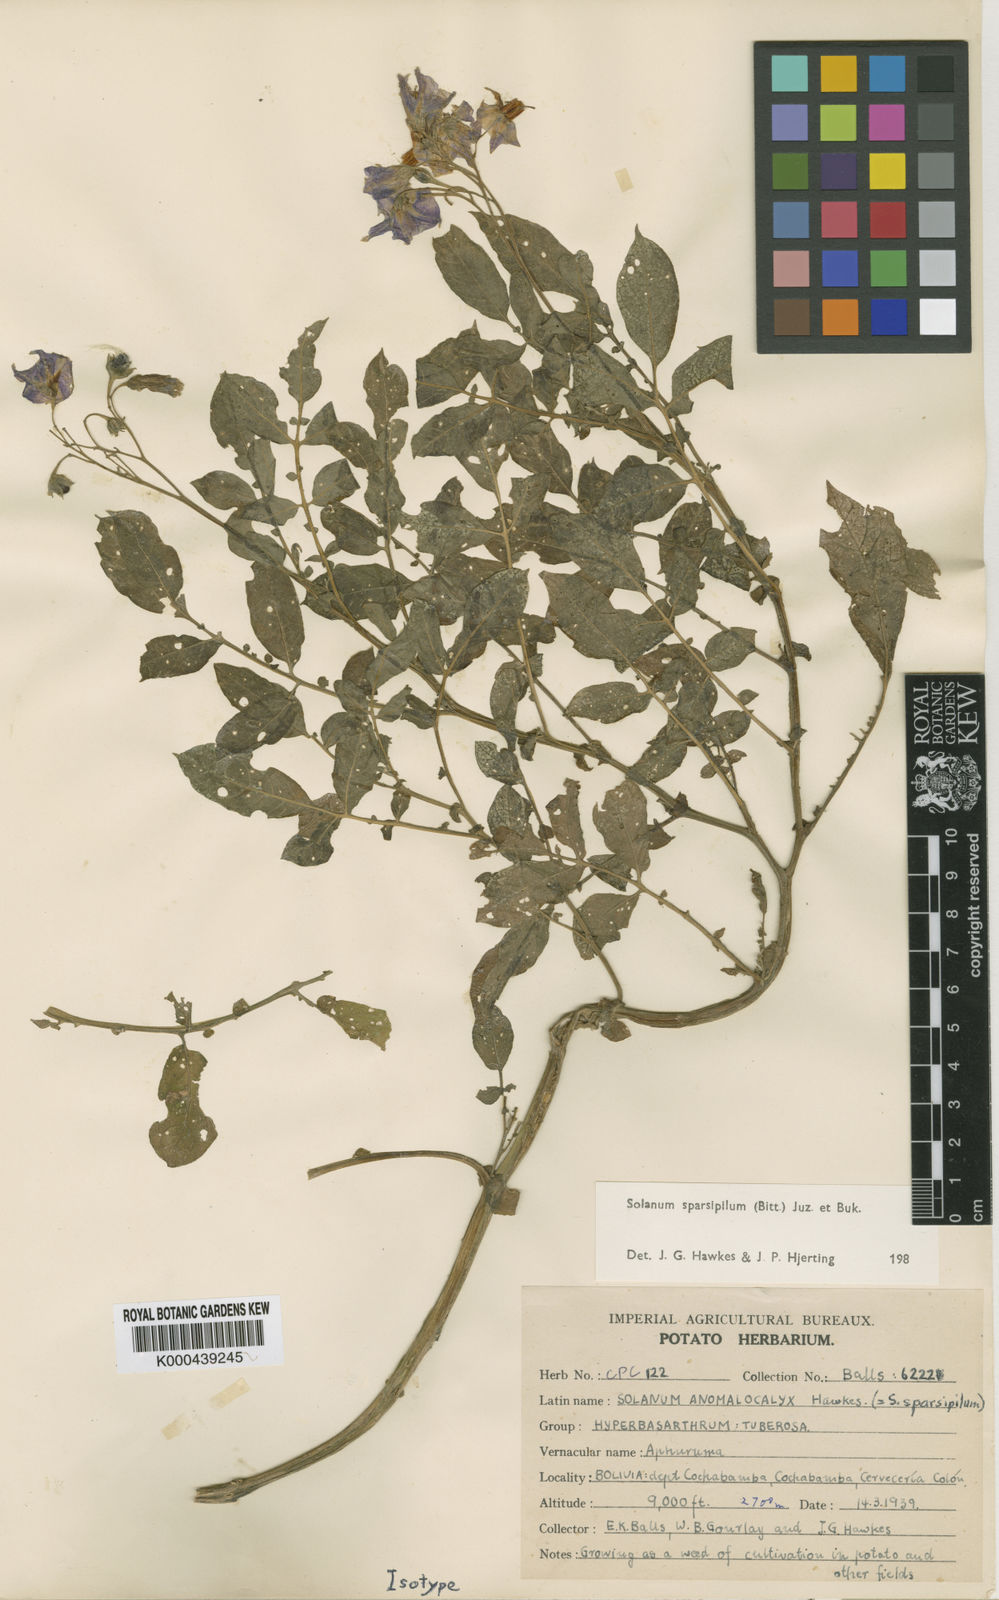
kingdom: Plantae
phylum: Tracheophyta
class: Magnoliopsida
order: Solanales
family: Solanaceae
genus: Solanum
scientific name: Solanum brevicaule
